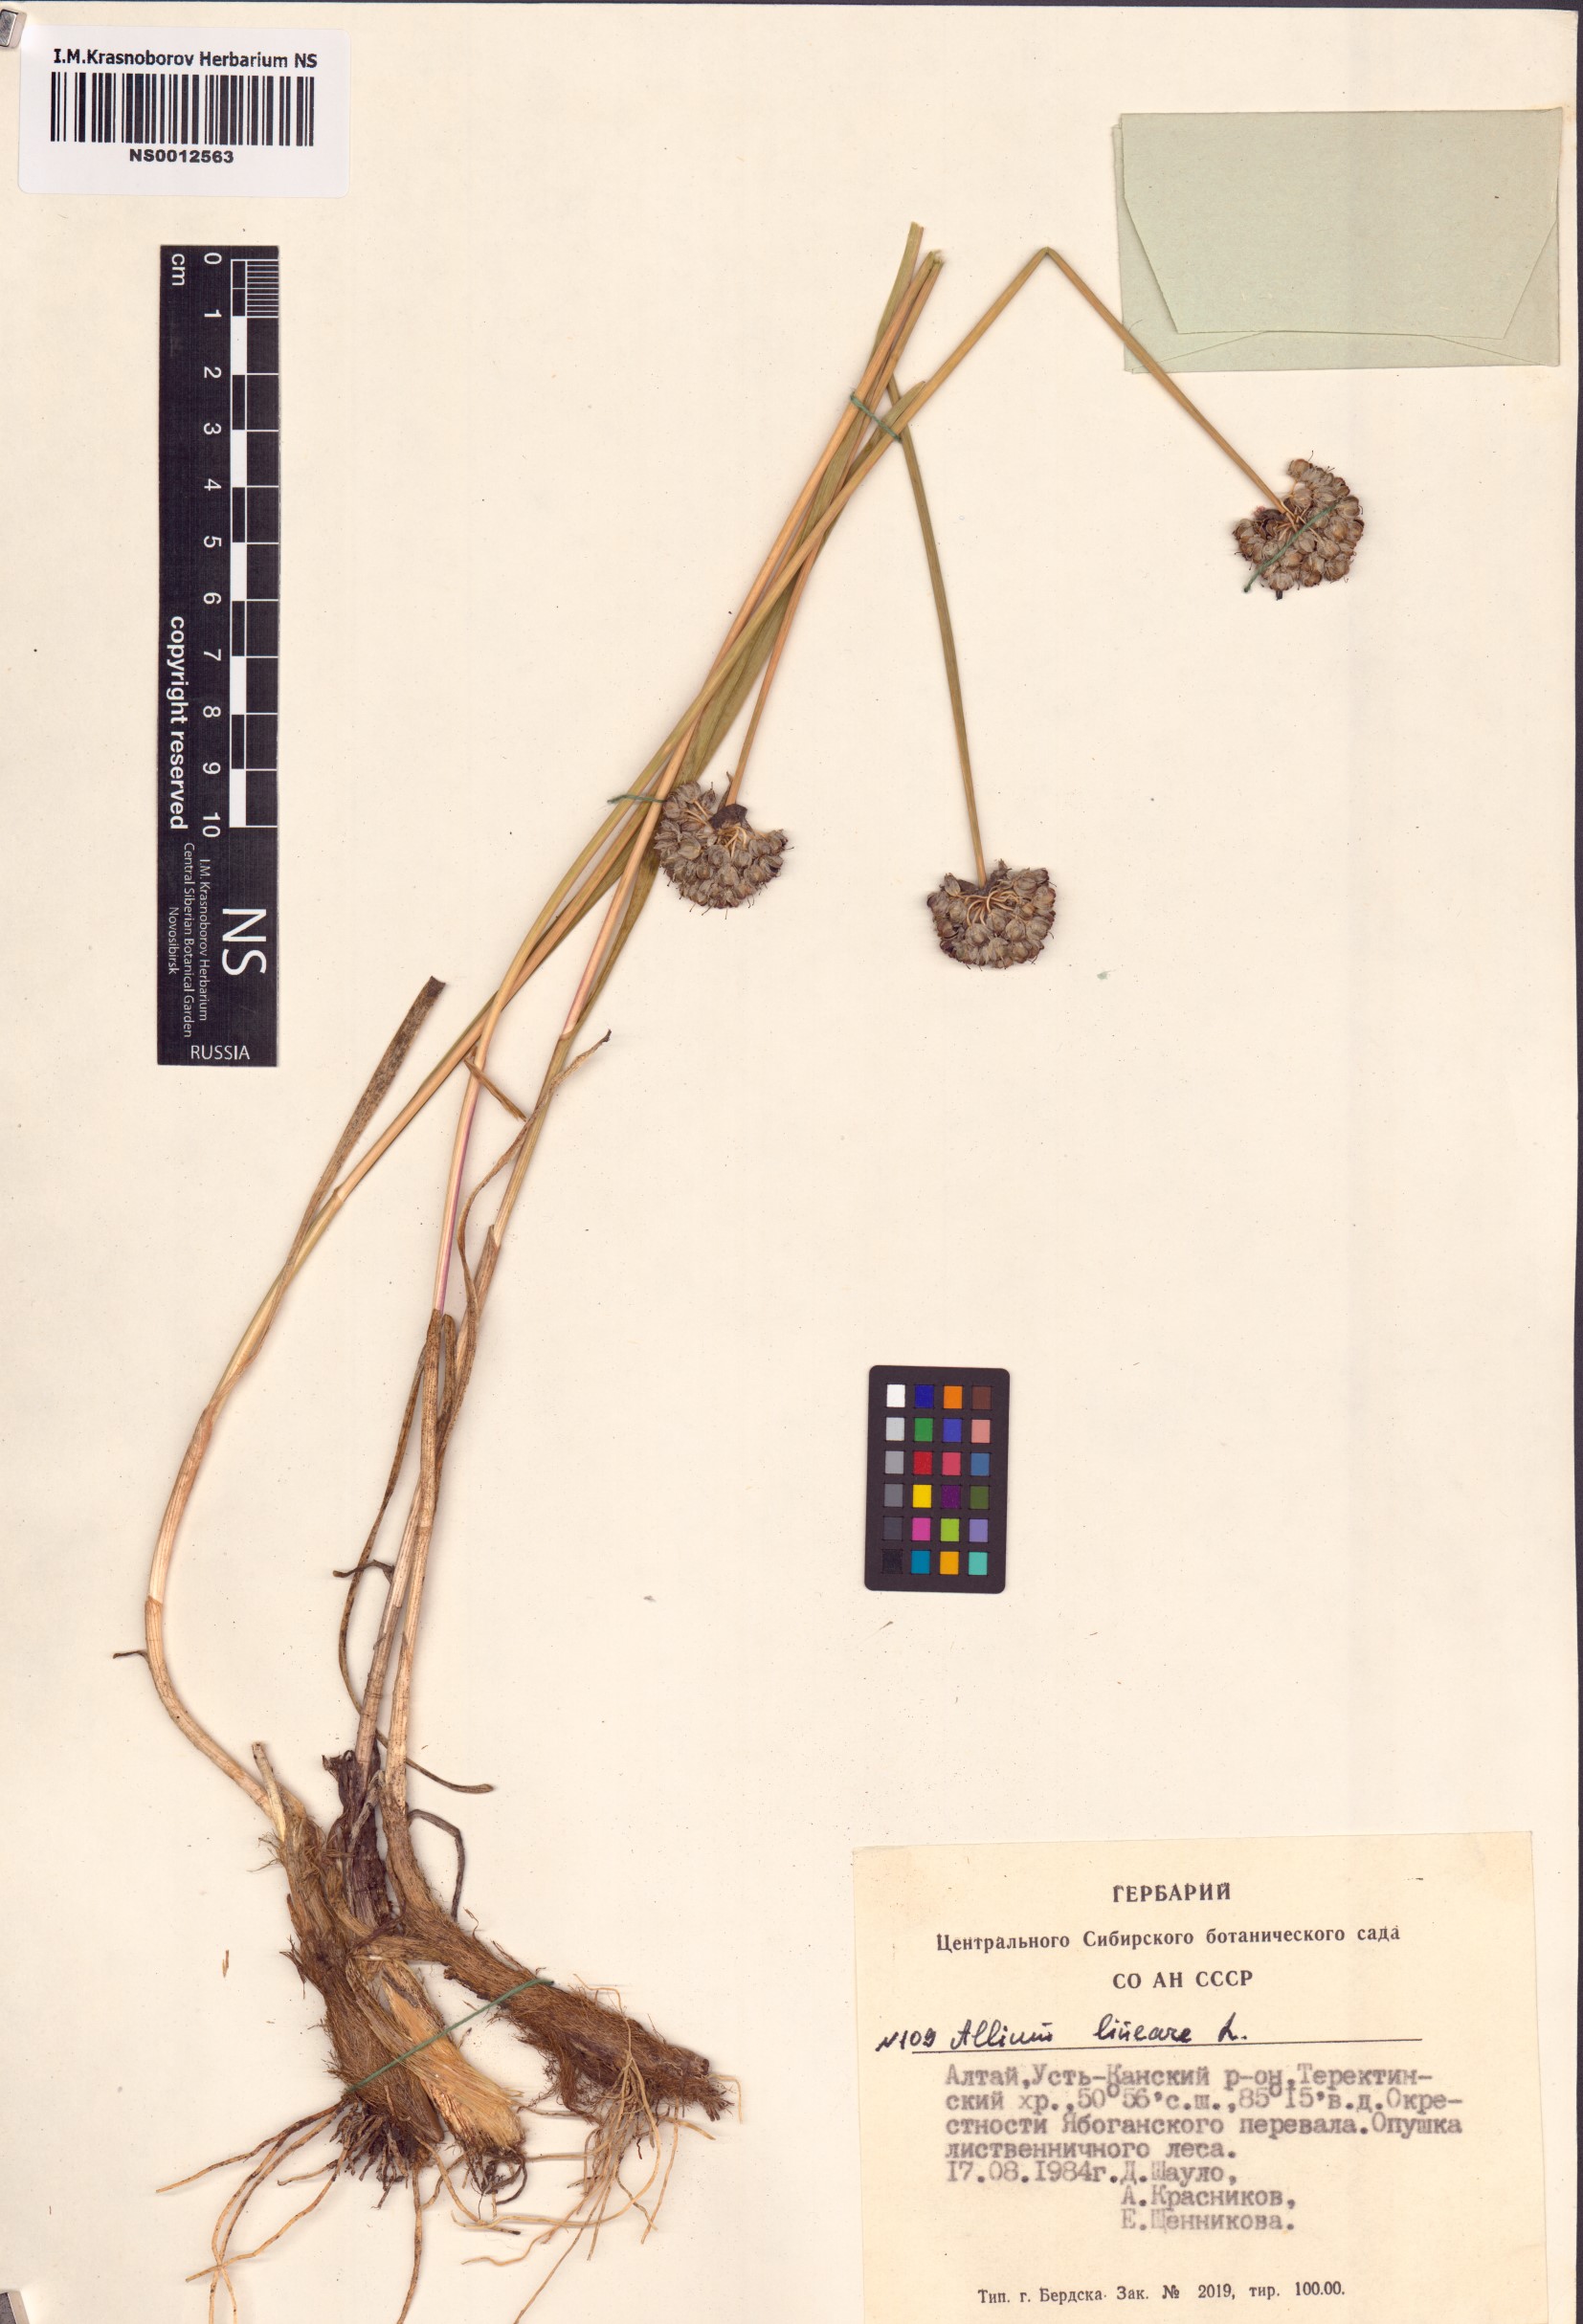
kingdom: Plantae
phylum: Tracheophyta
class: Liliopsida
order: Asparagales
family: Amaryllidaceae
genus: Allium
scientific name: Allium lineare
